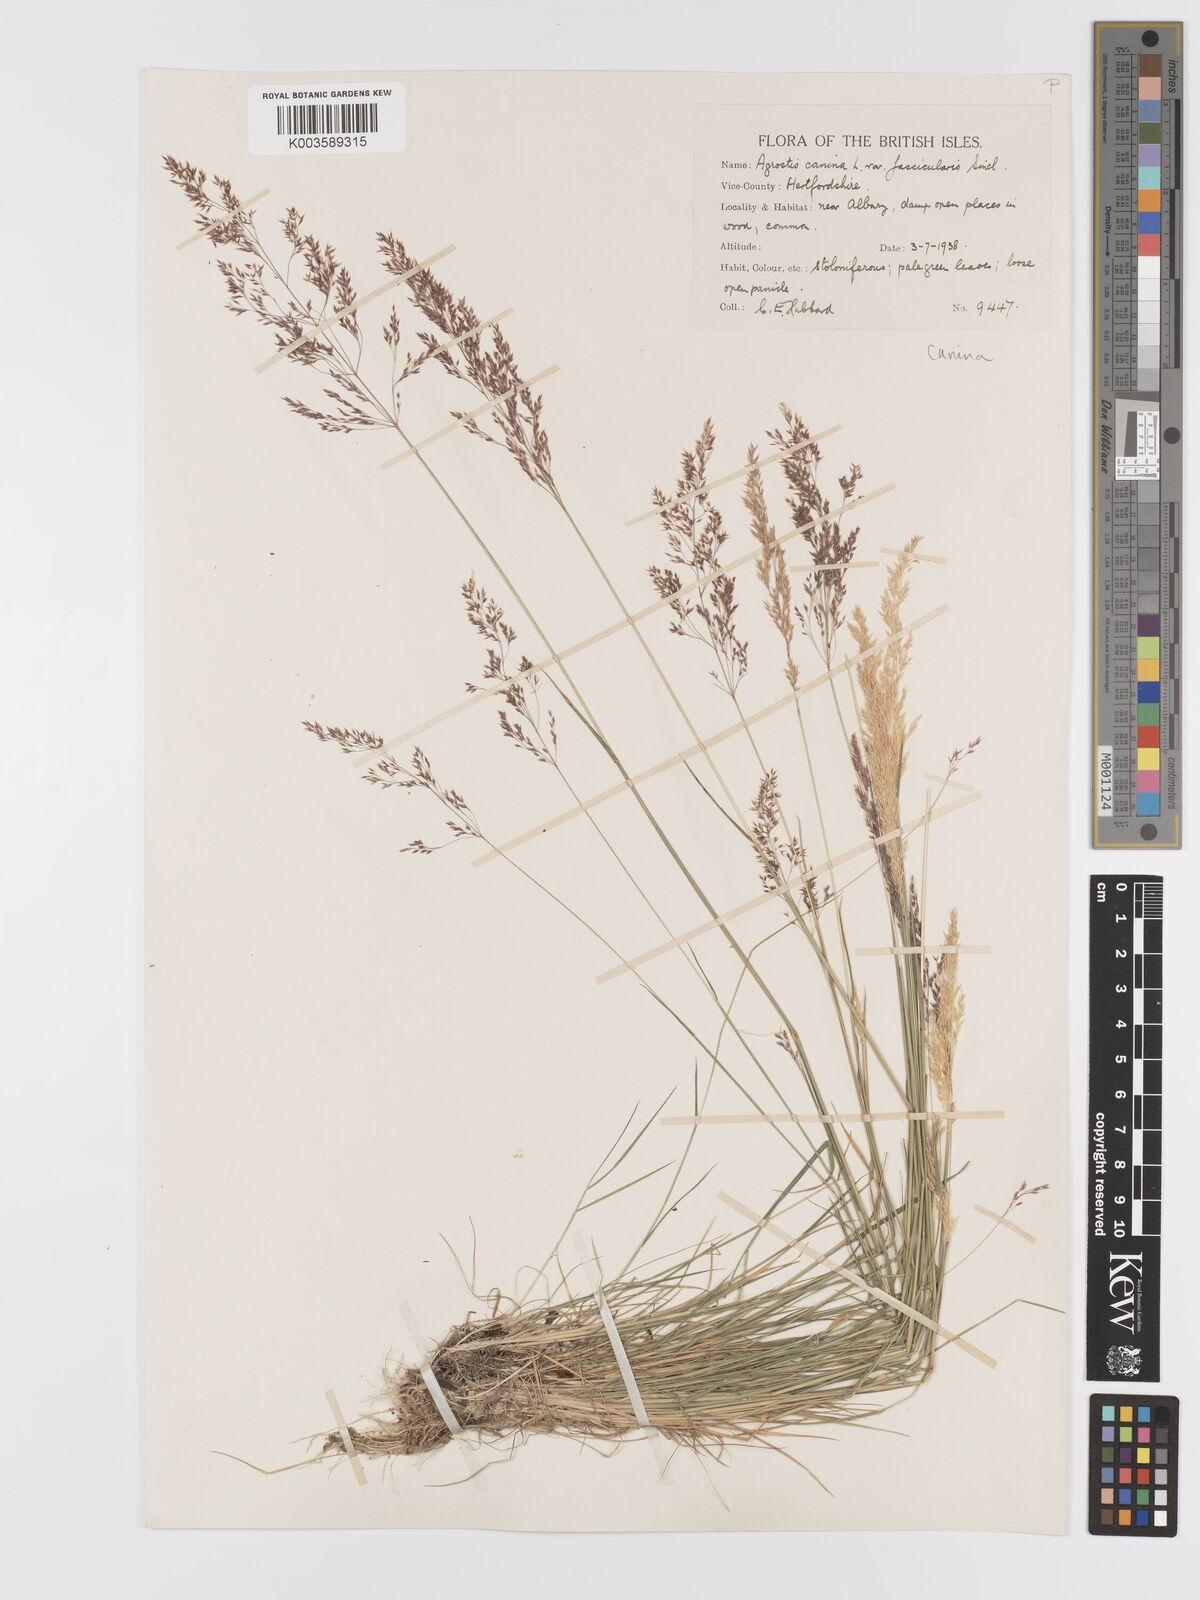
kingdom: Plantae
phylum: Tracheophyta
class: Liliopsida
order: Poales
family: Poaceae
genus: Agrostis
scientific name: Agrostis canina
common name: Velvet bent
